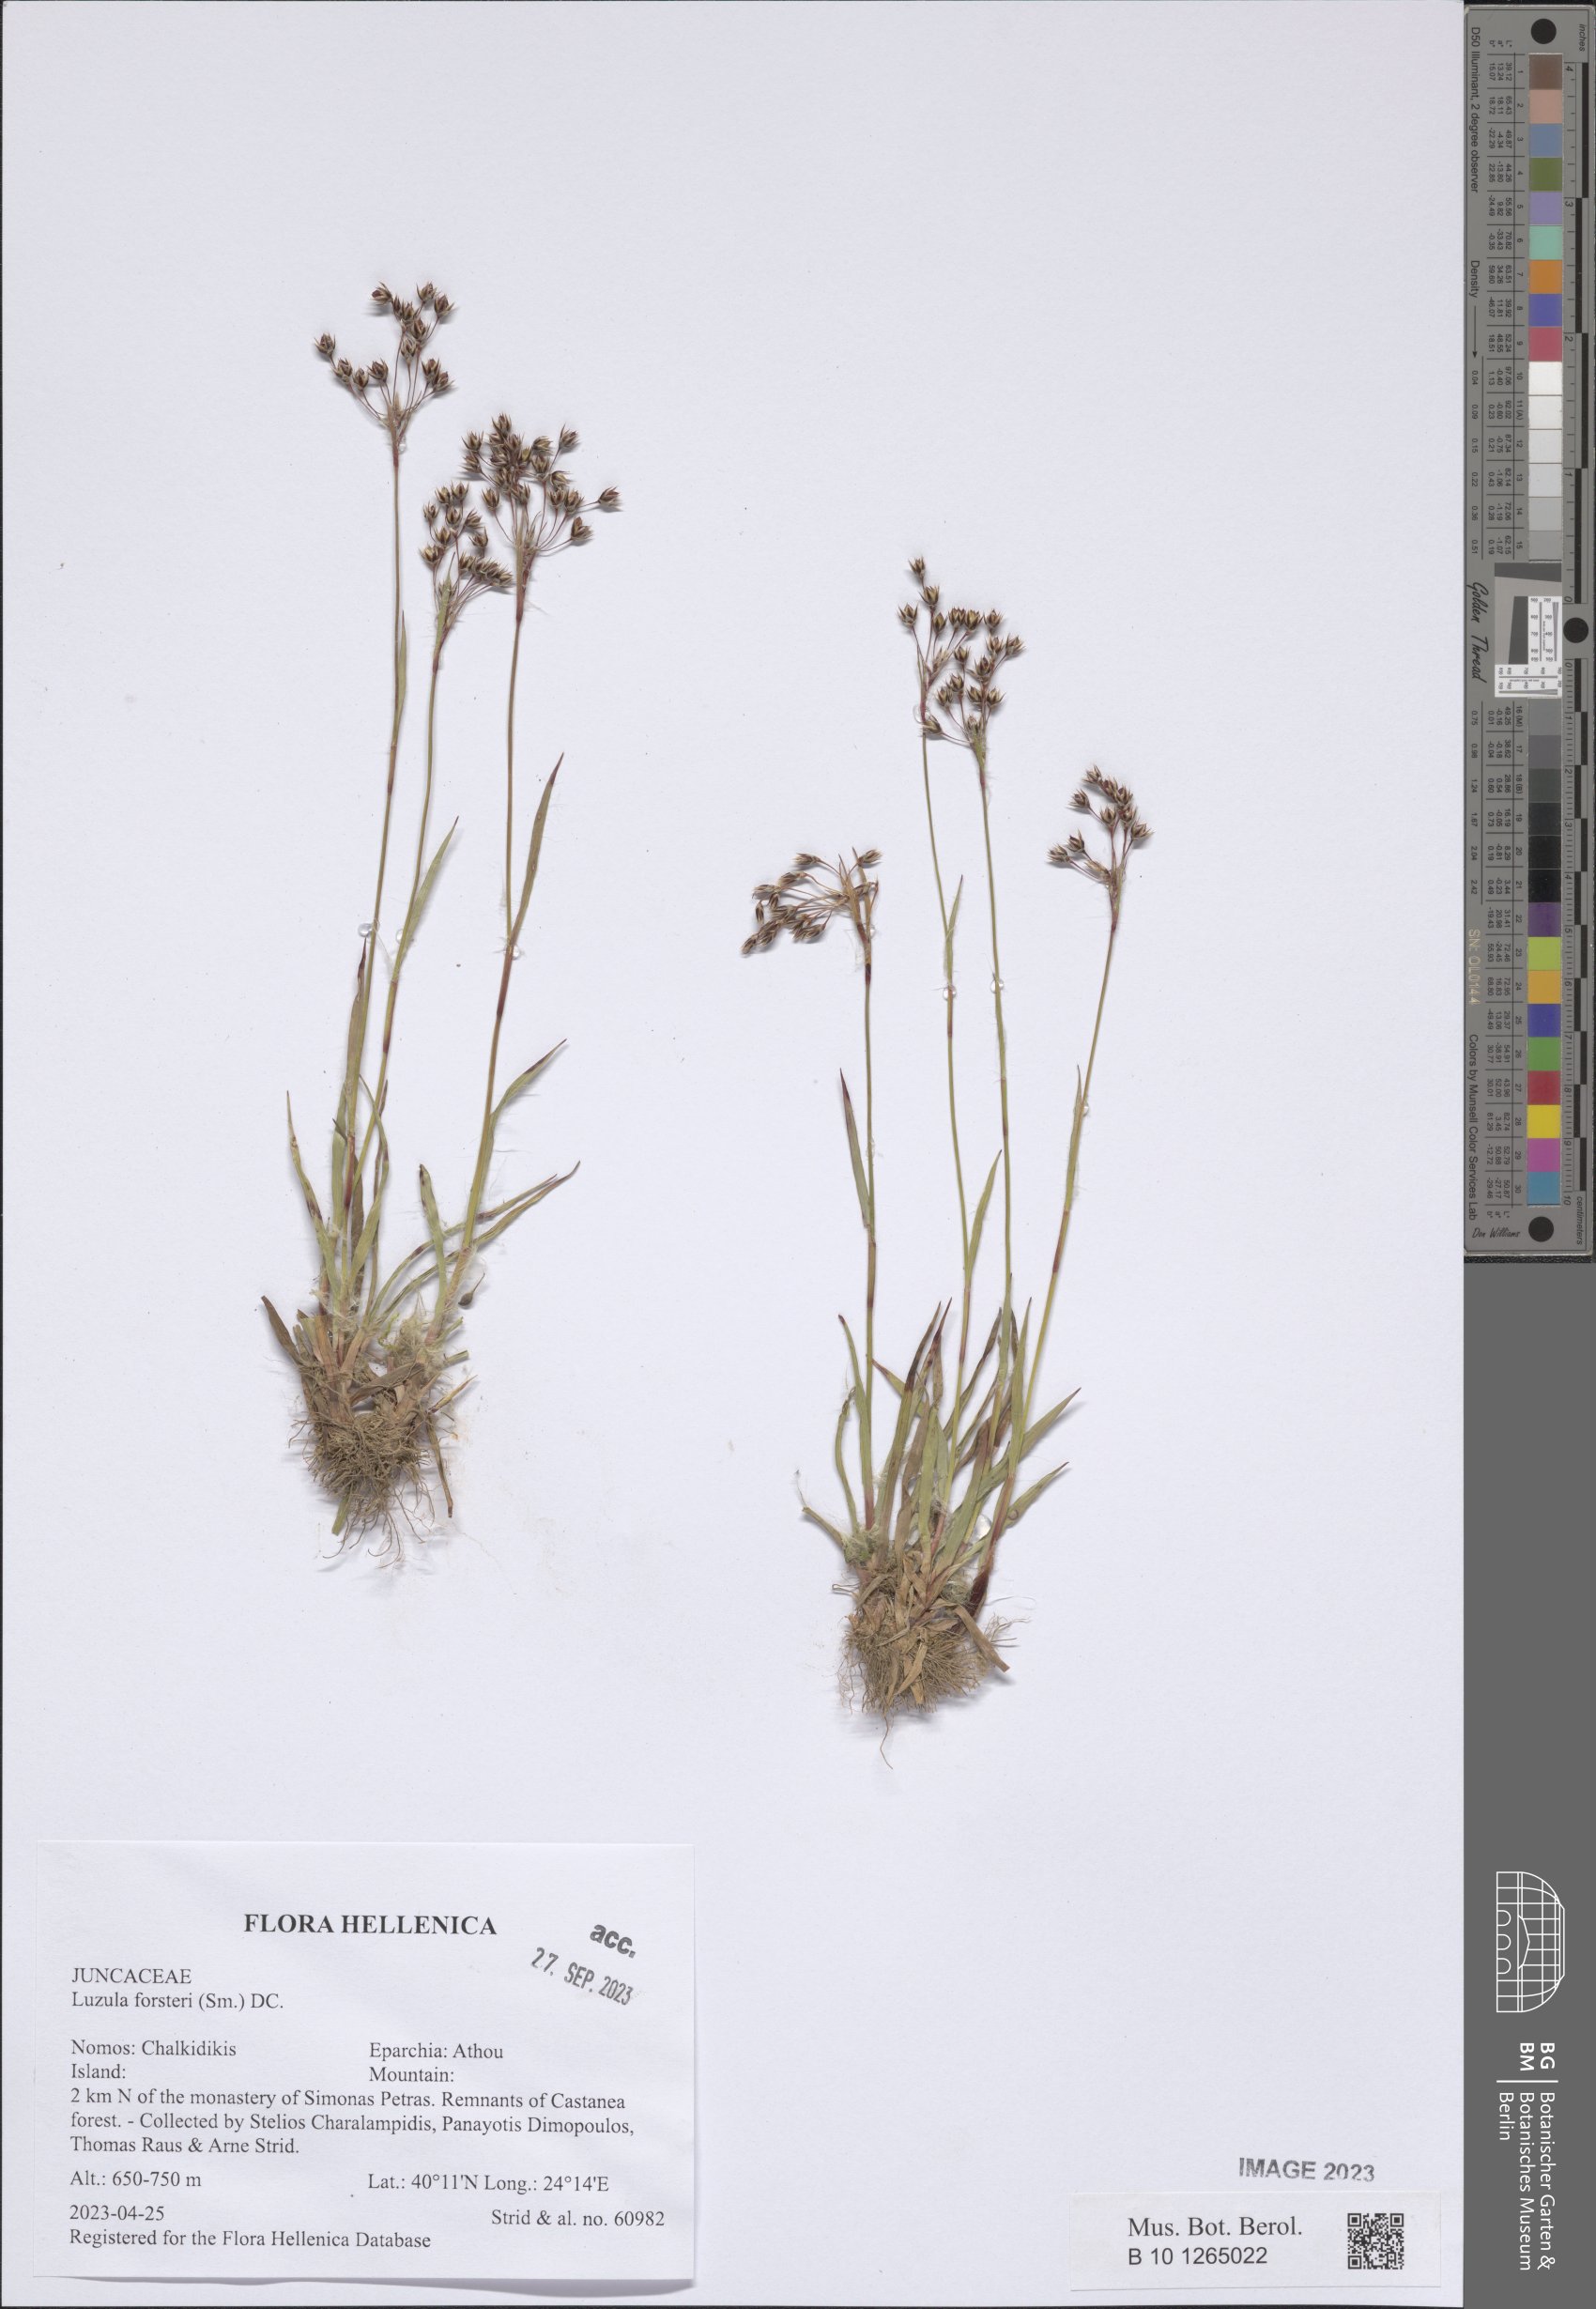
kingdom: Plantae
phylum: Tracheophyta
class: Liliopsida
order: Poales
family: Juncaceae
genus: Luzula
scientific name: Luzula forsteri
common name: Southern wood-rush
